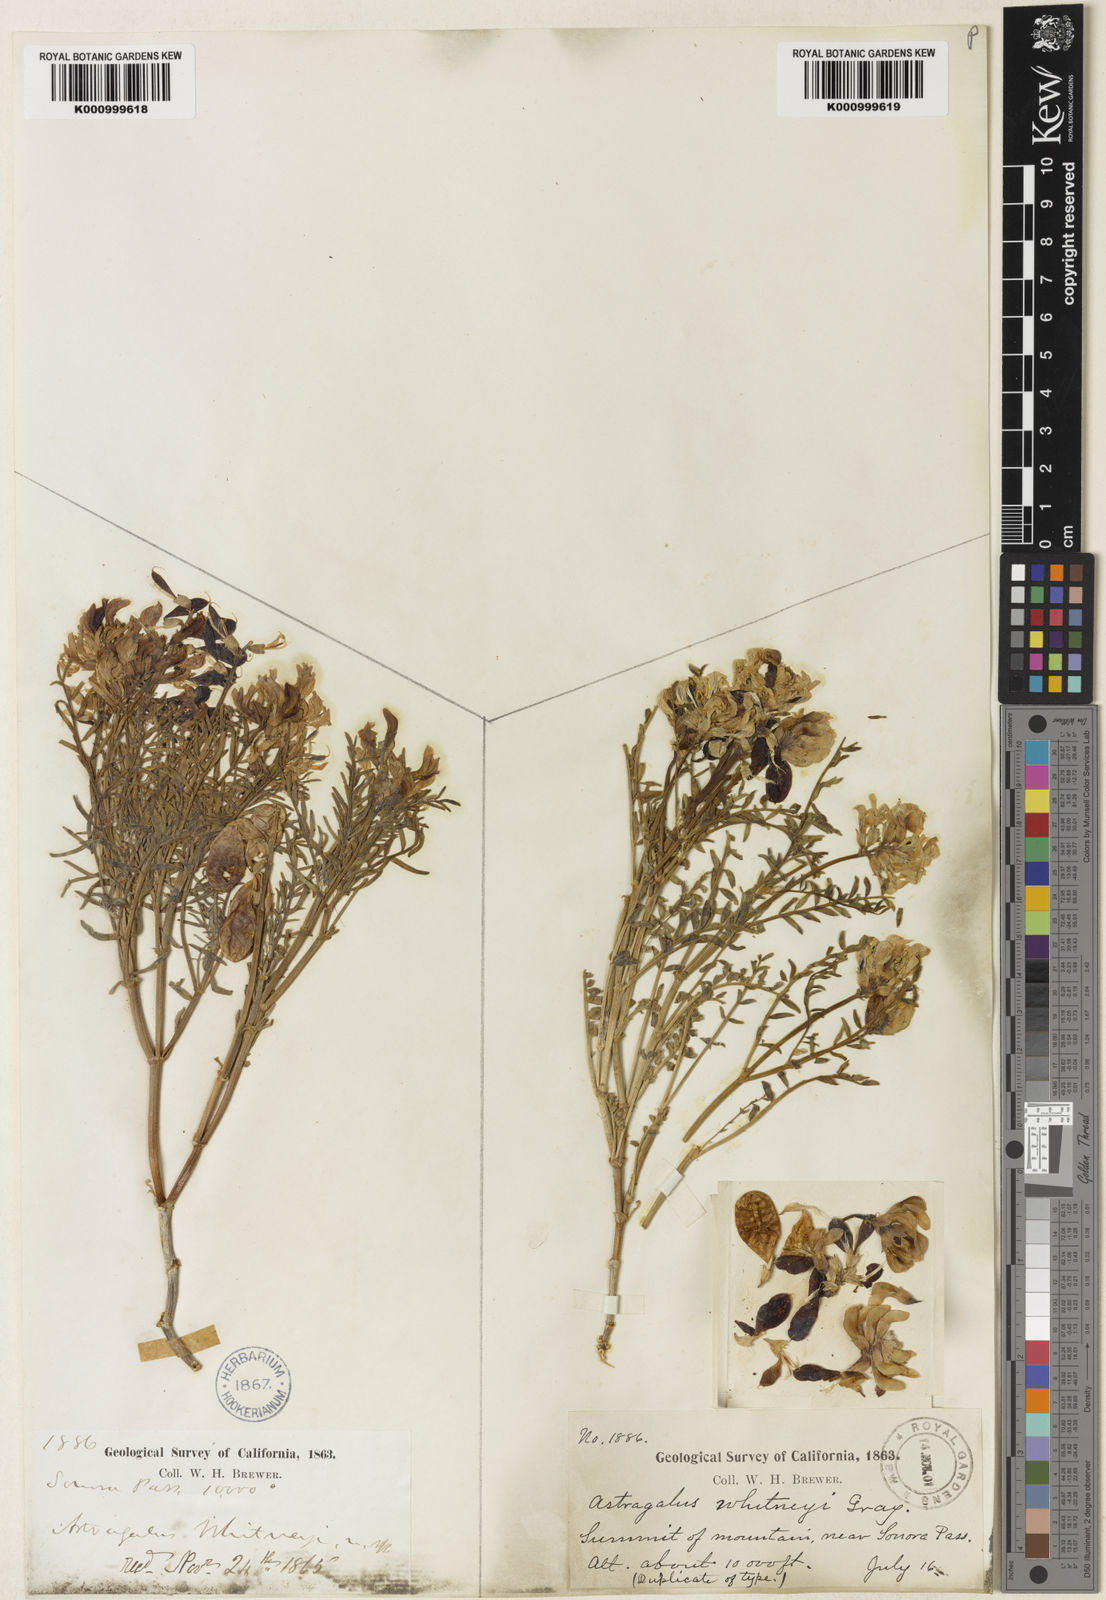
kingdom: Plantae
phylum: Tracheophyta
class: Magnoliopsida
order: Fabales
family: Fabaceae
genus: Astragalus
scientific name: Astragalus whitneyi
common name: Balloonpod milkvetch
